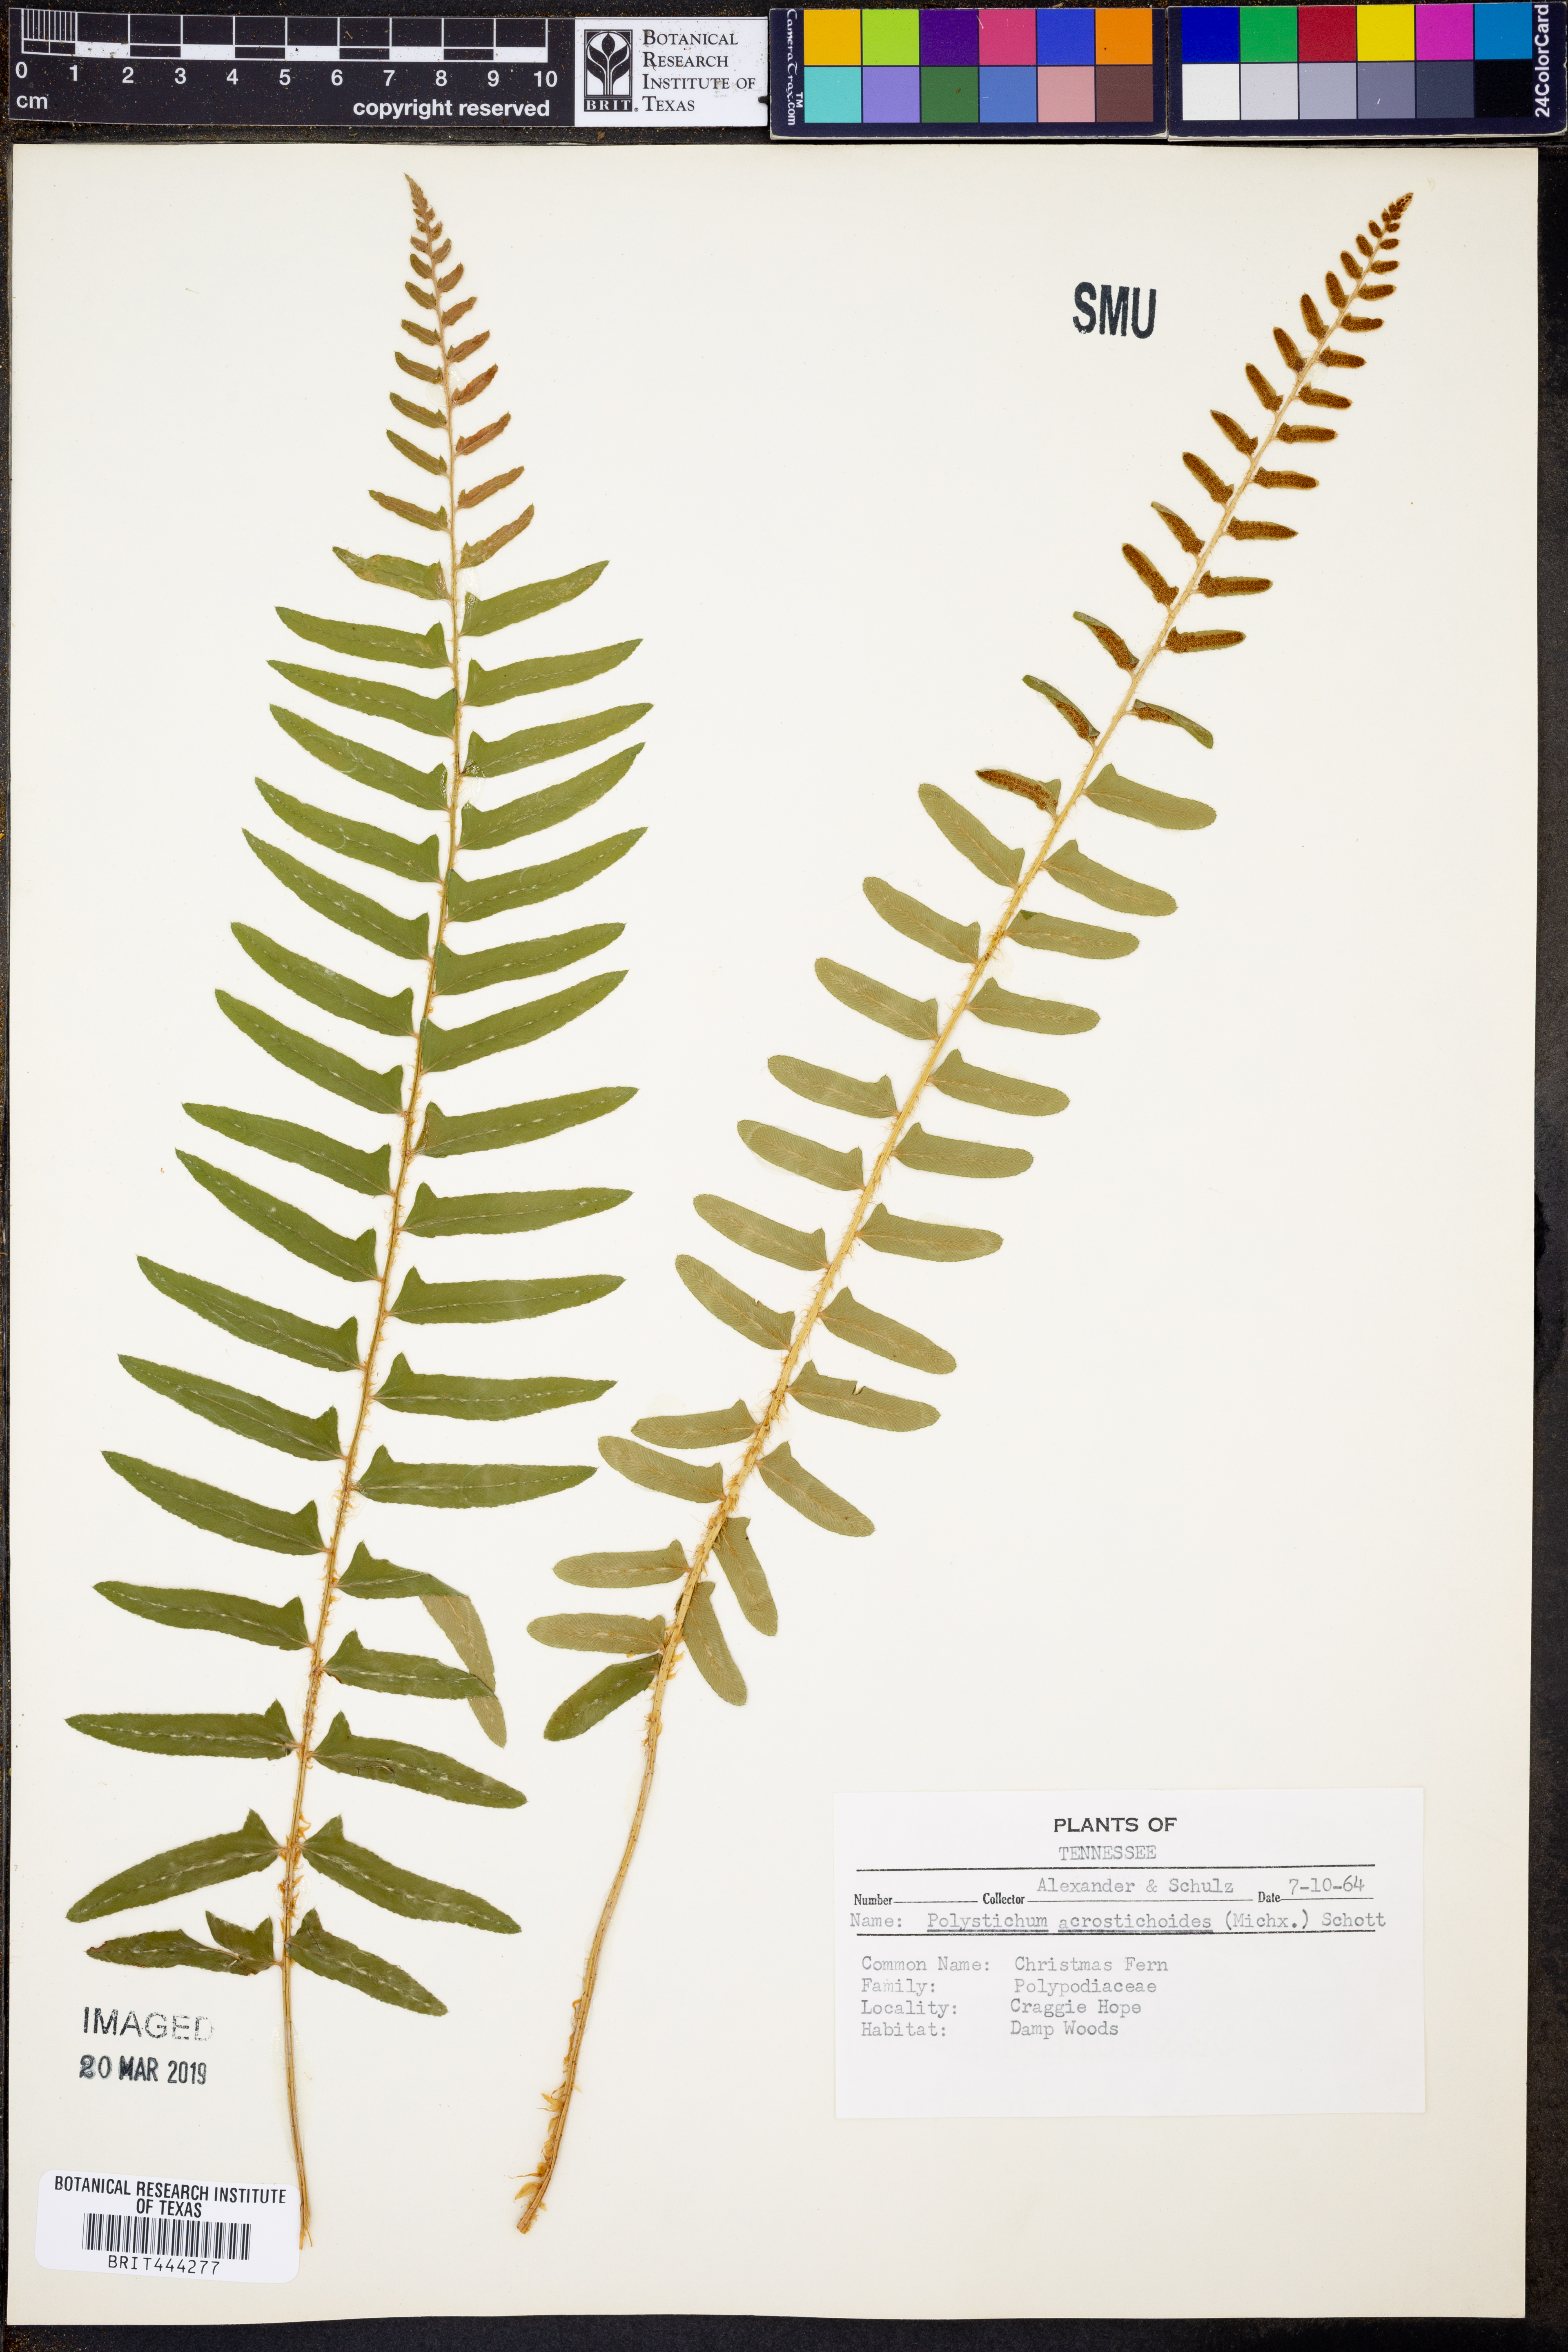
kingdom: Plantae
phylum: Tracheophyta
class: Polypodiopsida
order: Polypodiales
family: Dryopteridaceae
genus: Polystichum
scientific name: Polystichum acrostichoides
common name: Christmas fern
